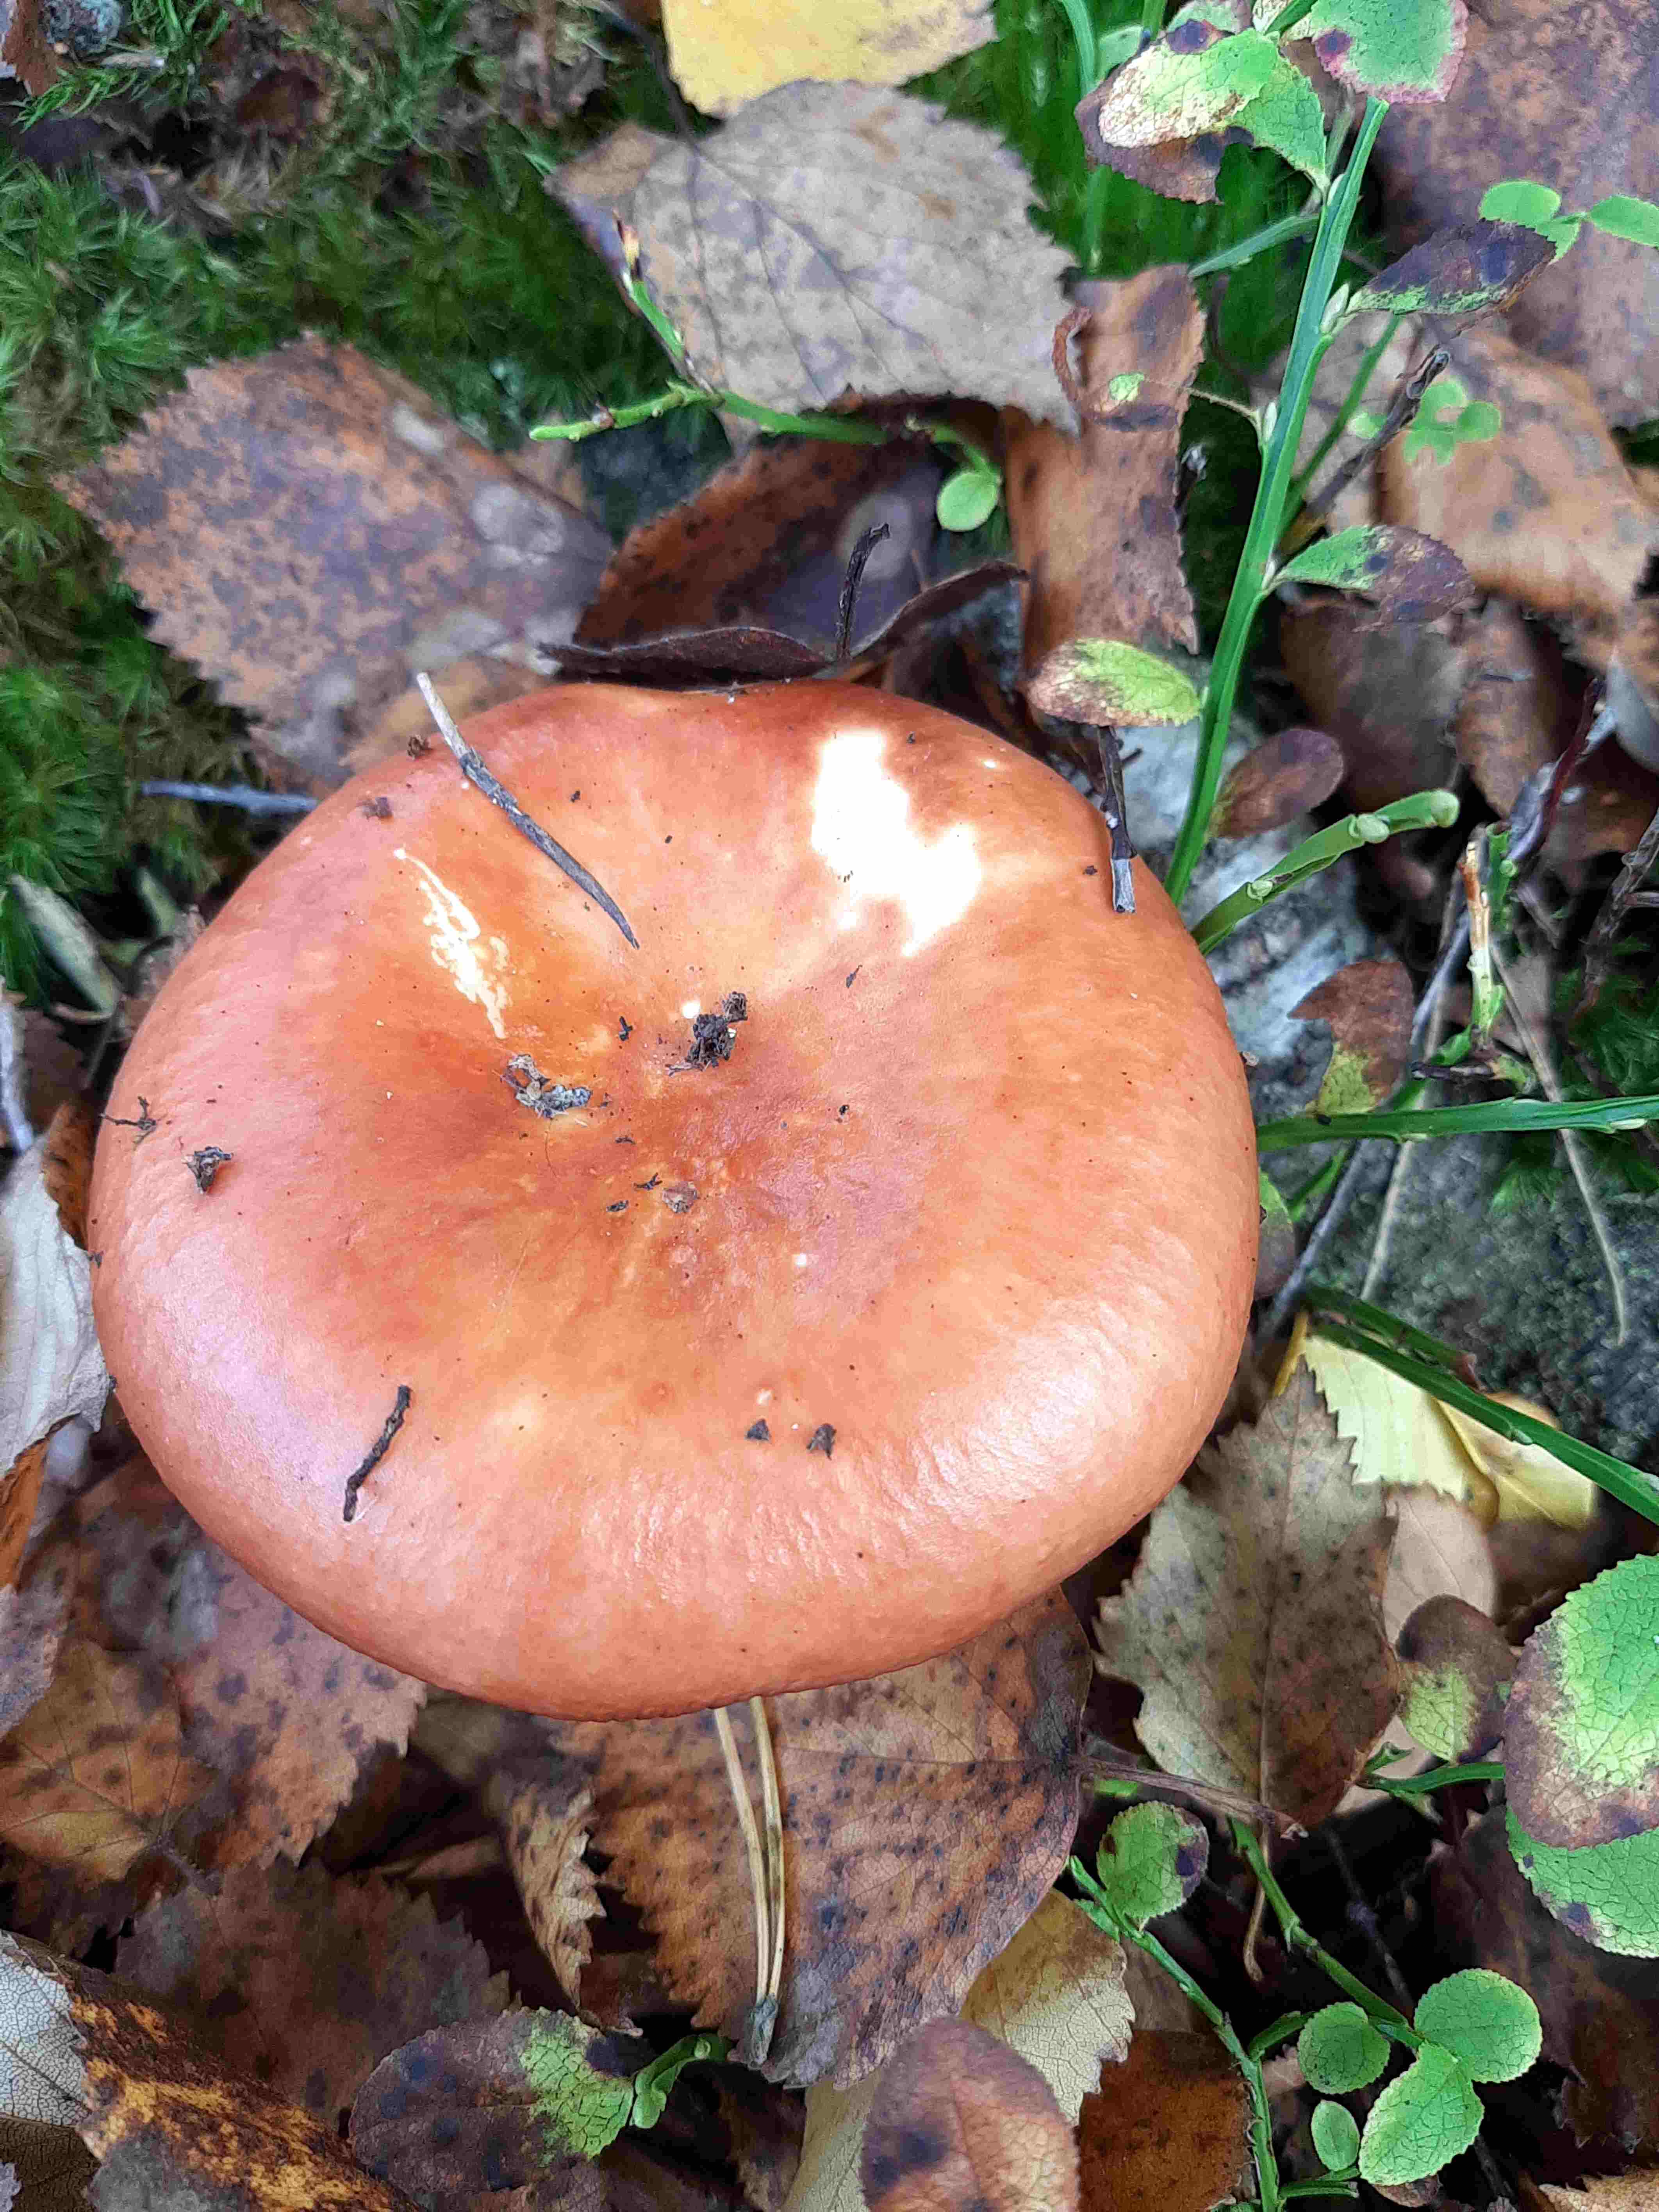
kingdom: Fungi
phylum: Basidiomycota
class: Agaricomycetes
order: Russulales
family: Russulaceae
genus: Russula
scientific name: Russula vesca
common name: spiselig skørhat
